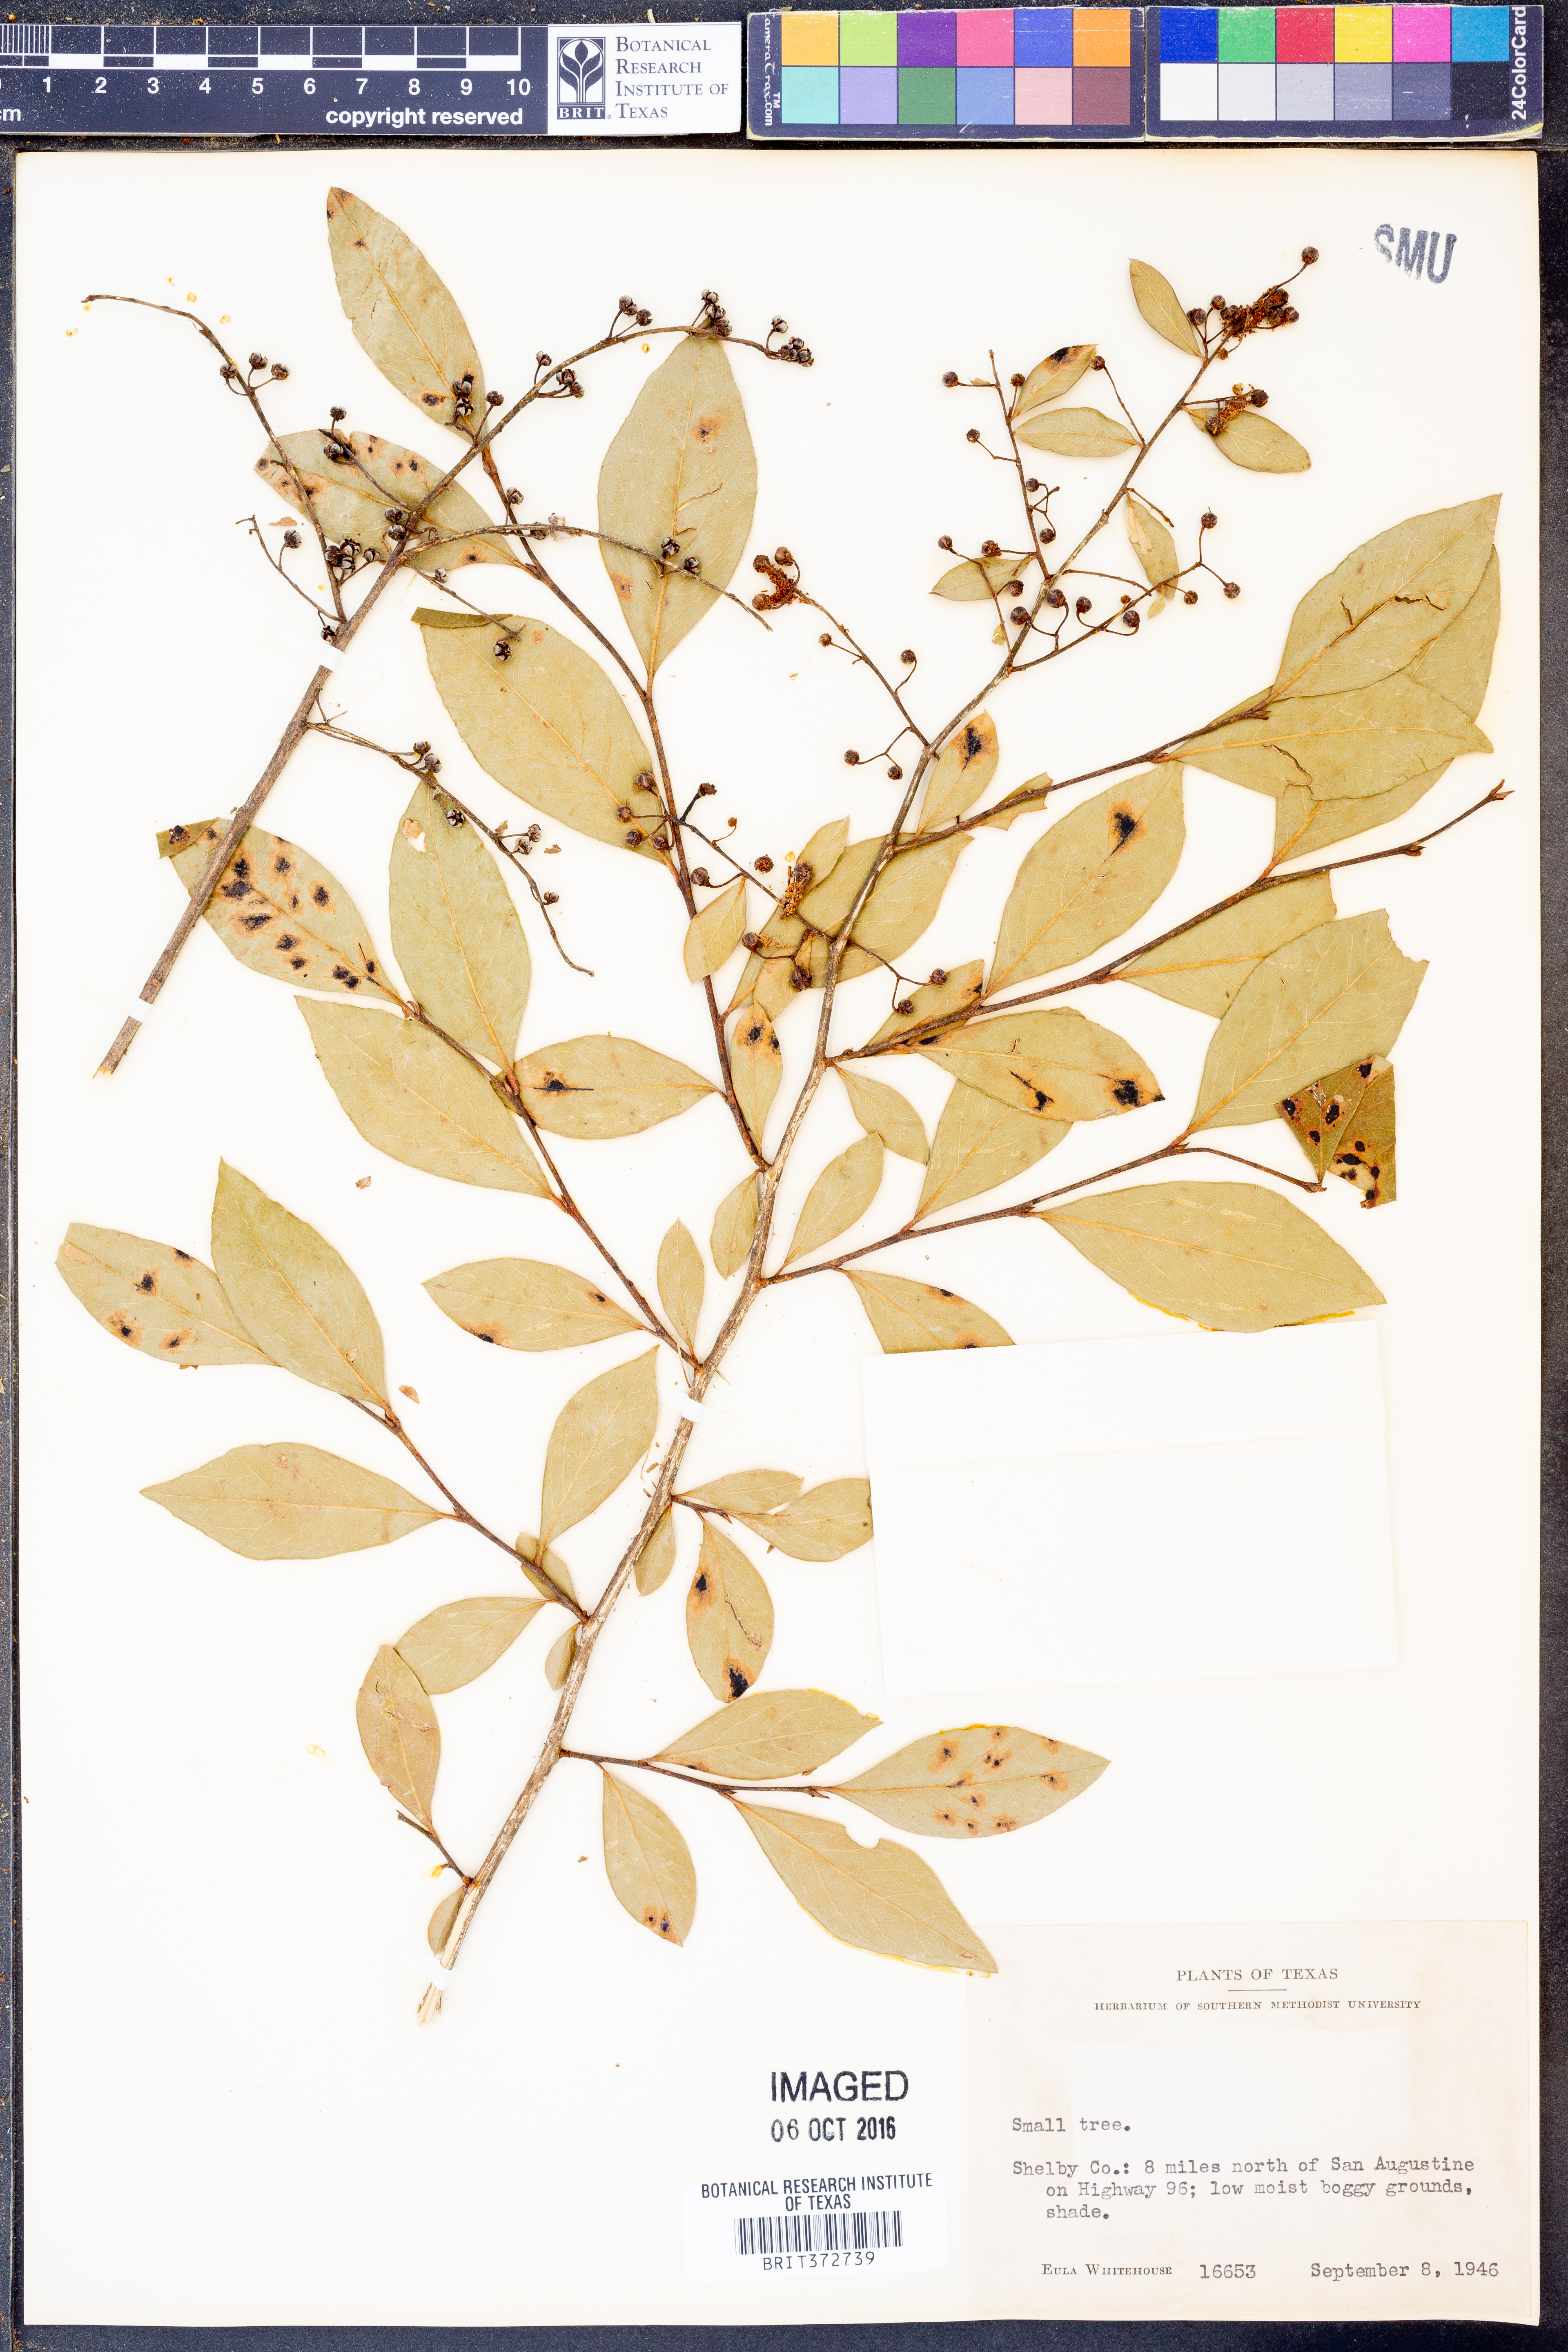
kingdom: Plantae
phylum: Tracheophyta
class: Magnoliopsida
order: Ericales
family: Ericaceae
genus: Lyonia
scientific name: Lyonia ligustrina
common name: Maleberry
